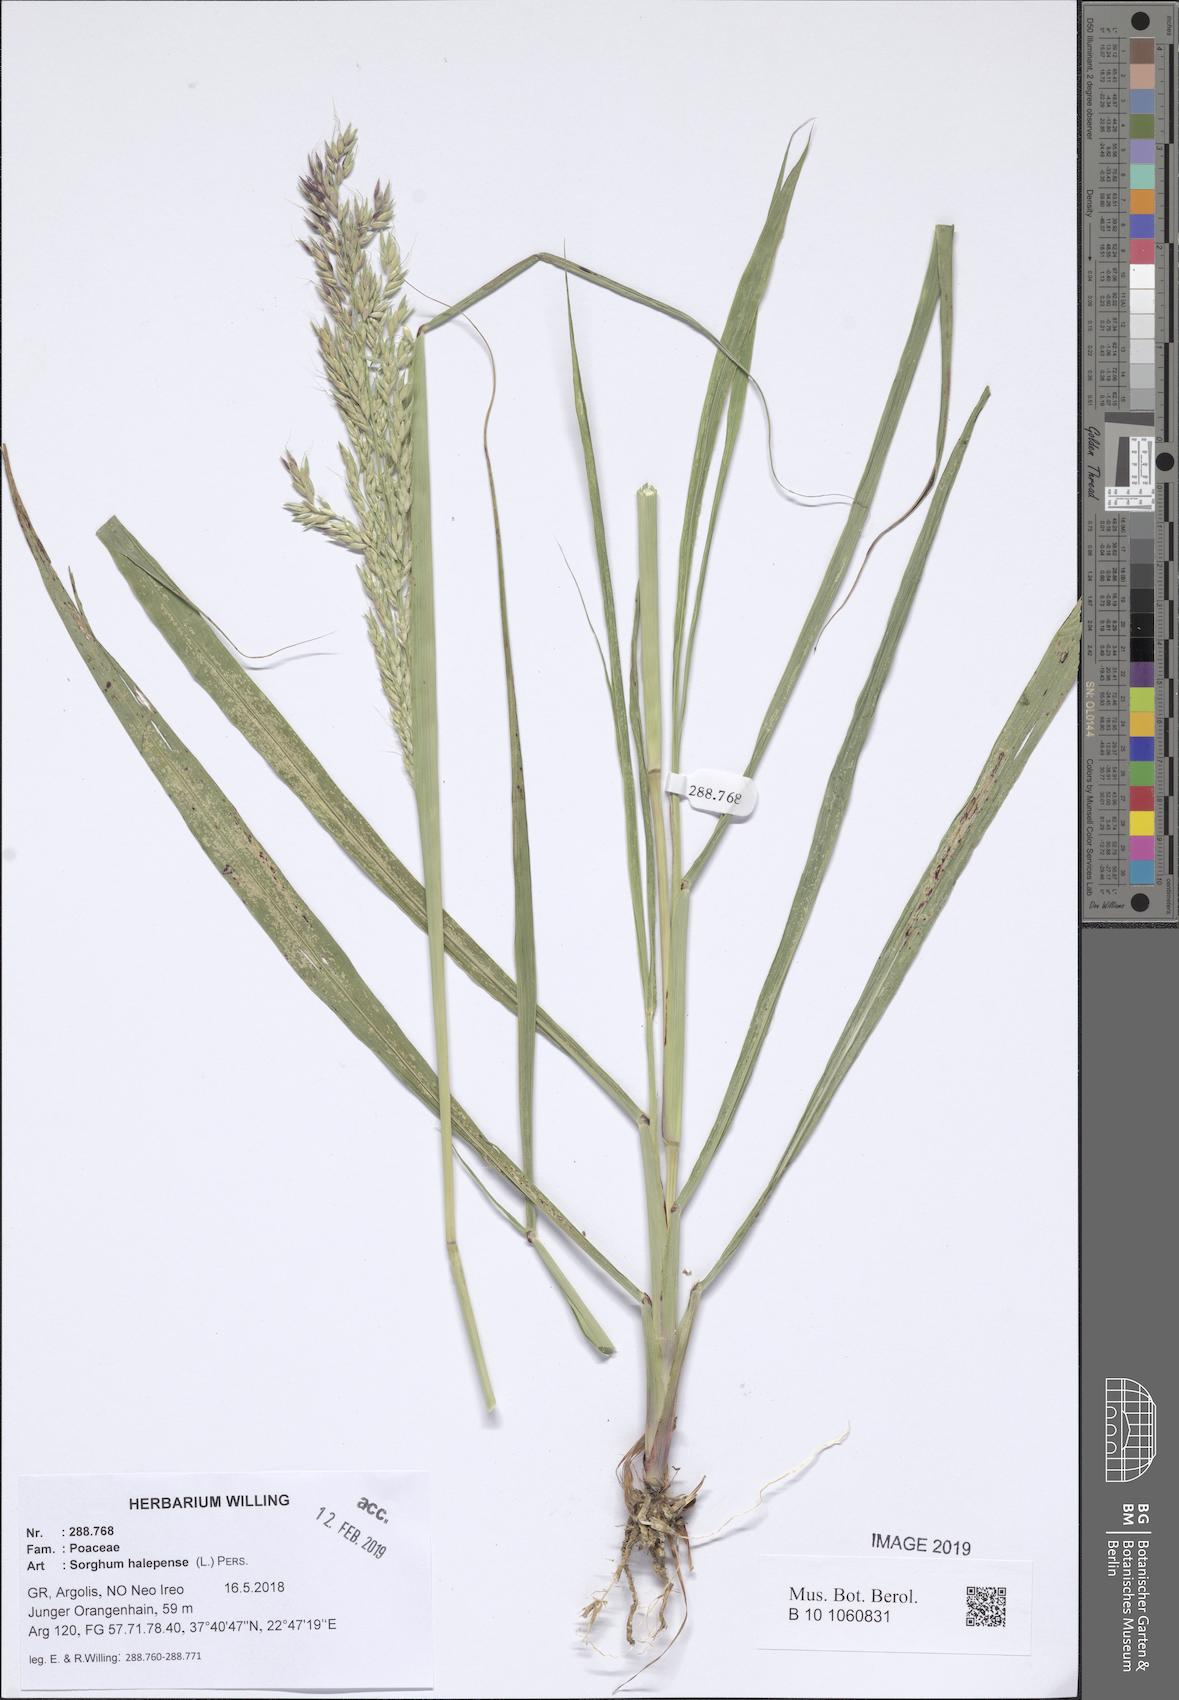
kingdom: Plantae
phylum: Tracheophyta
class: Liliopsida
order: Poales
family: Poaceae
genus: Sorghum
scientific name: Sorghum halepense
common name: Johnson-grass
